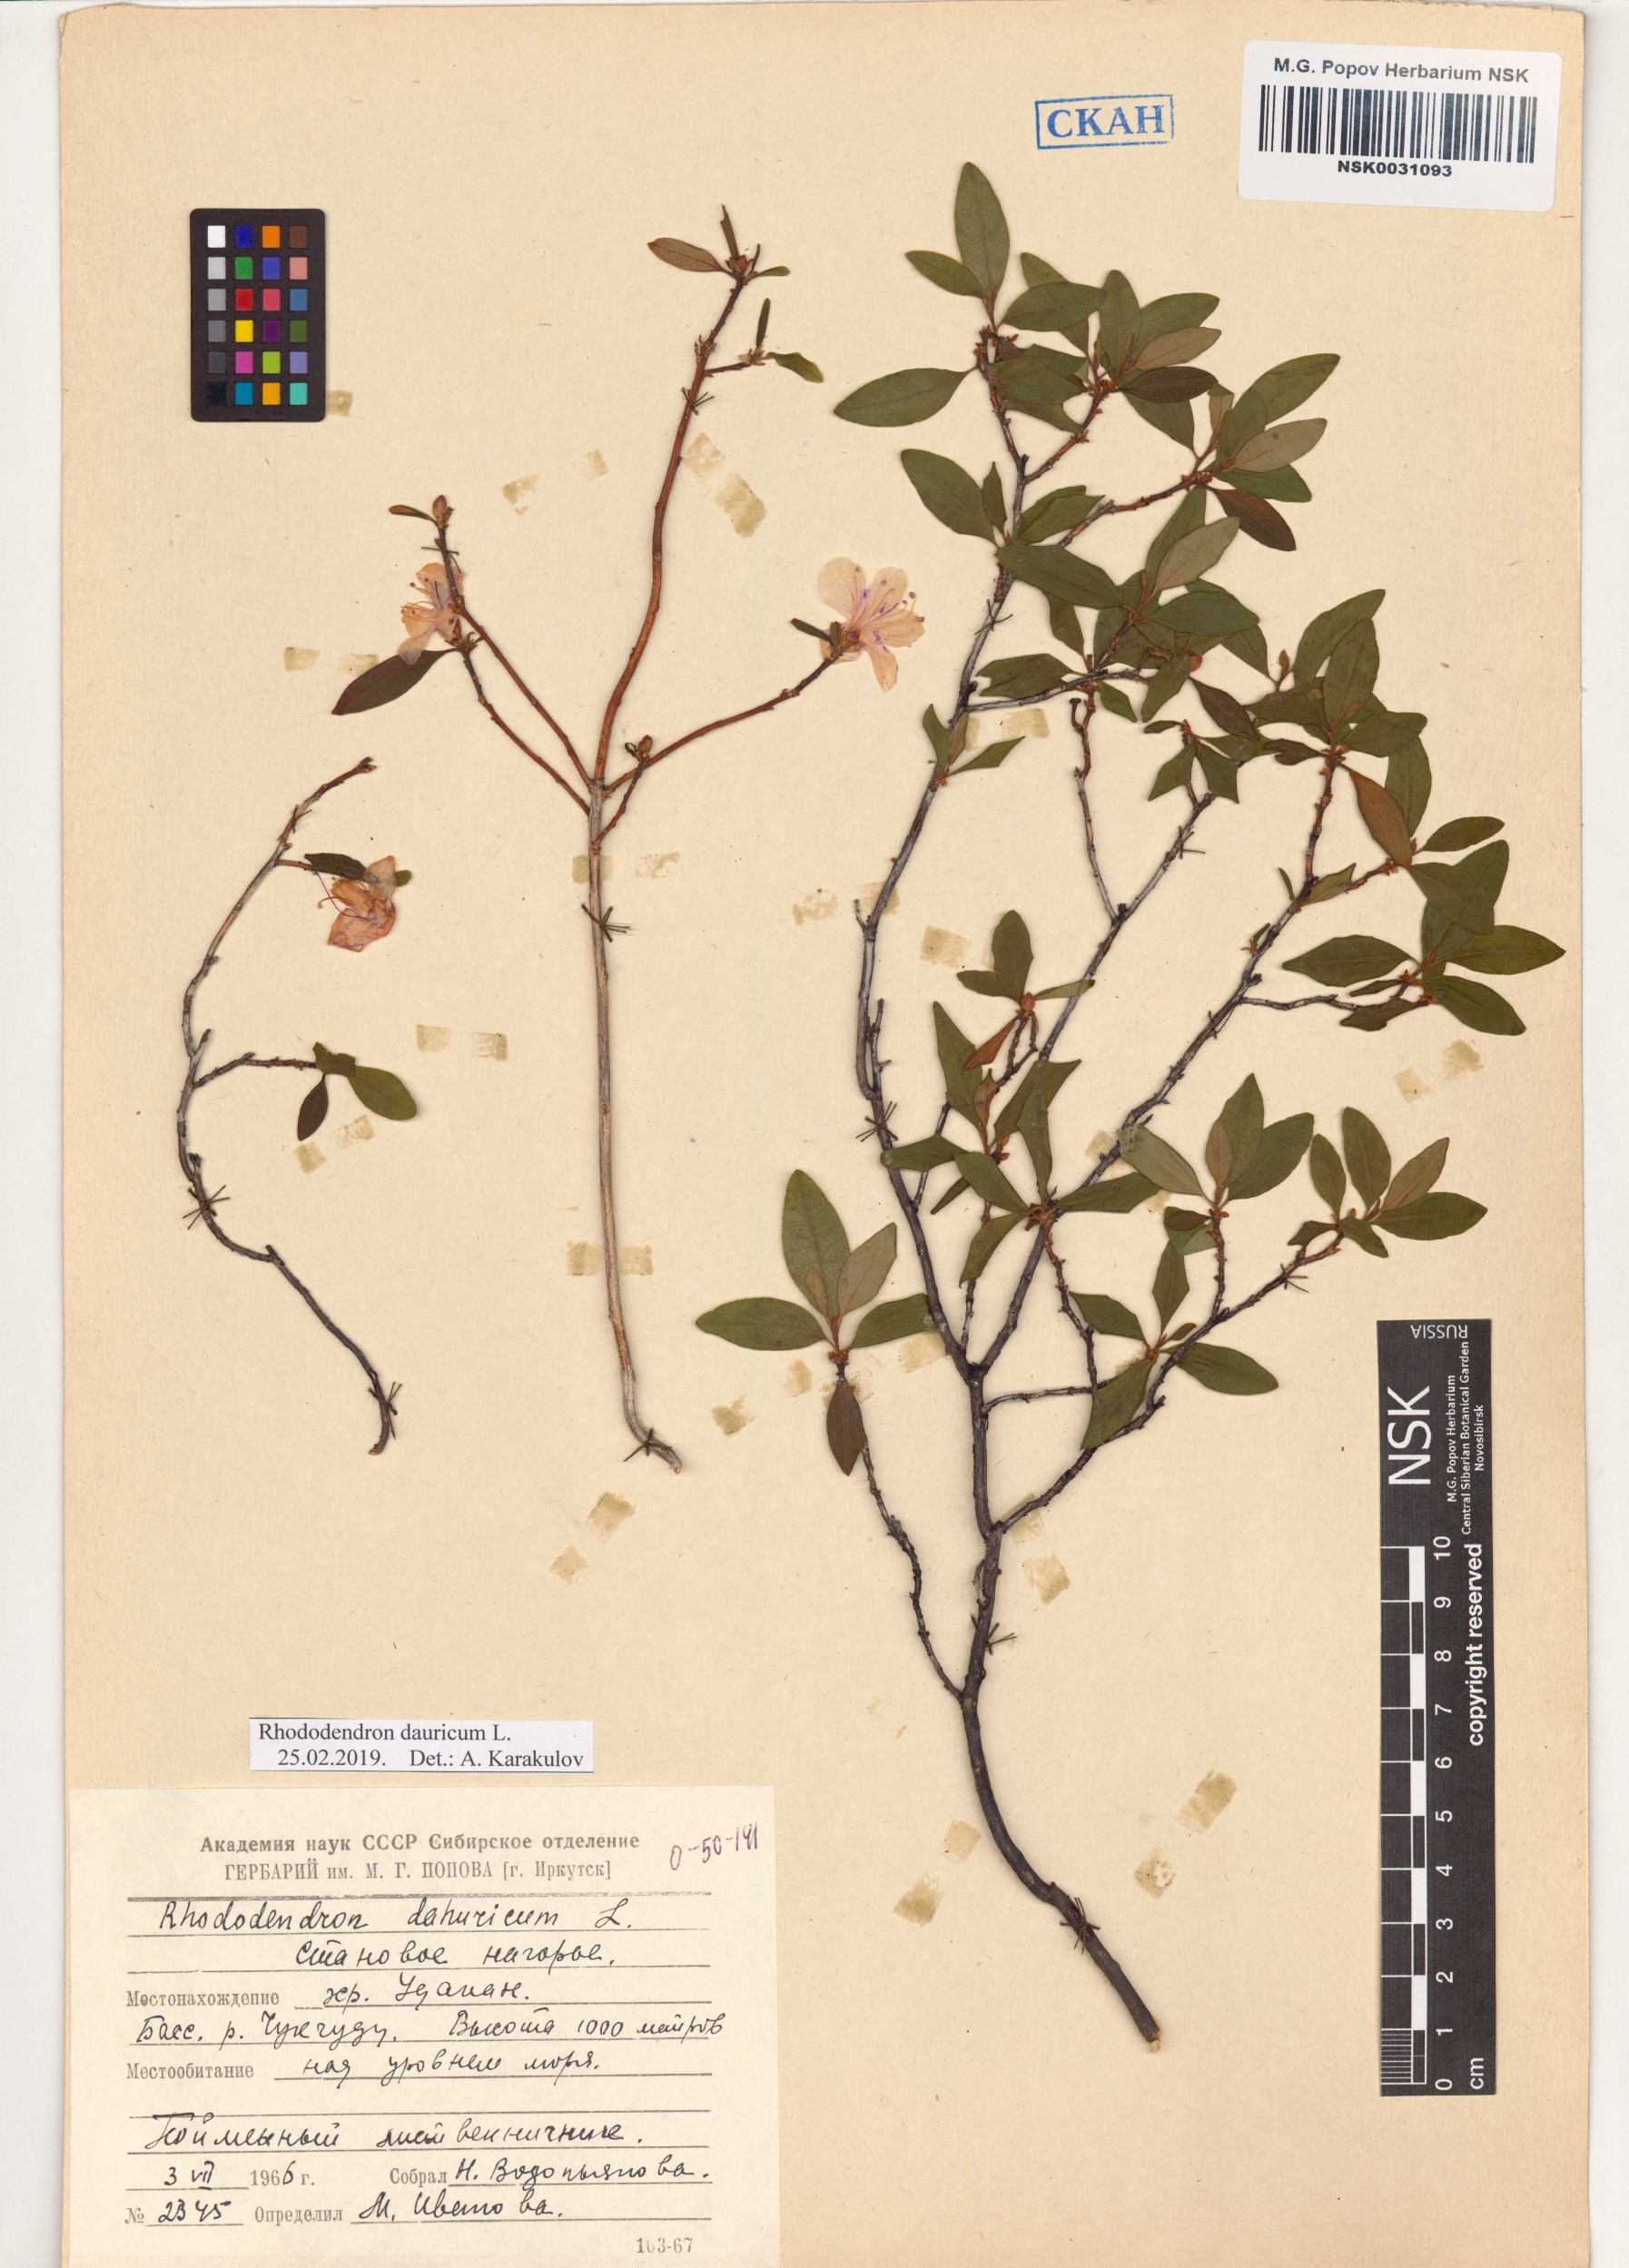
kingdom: Plantae
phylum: Tracheophyta
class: Magnoliopsida
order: Ericales
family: Ericaceae
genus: Rhododendron
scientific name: Rhododendron dauricum
